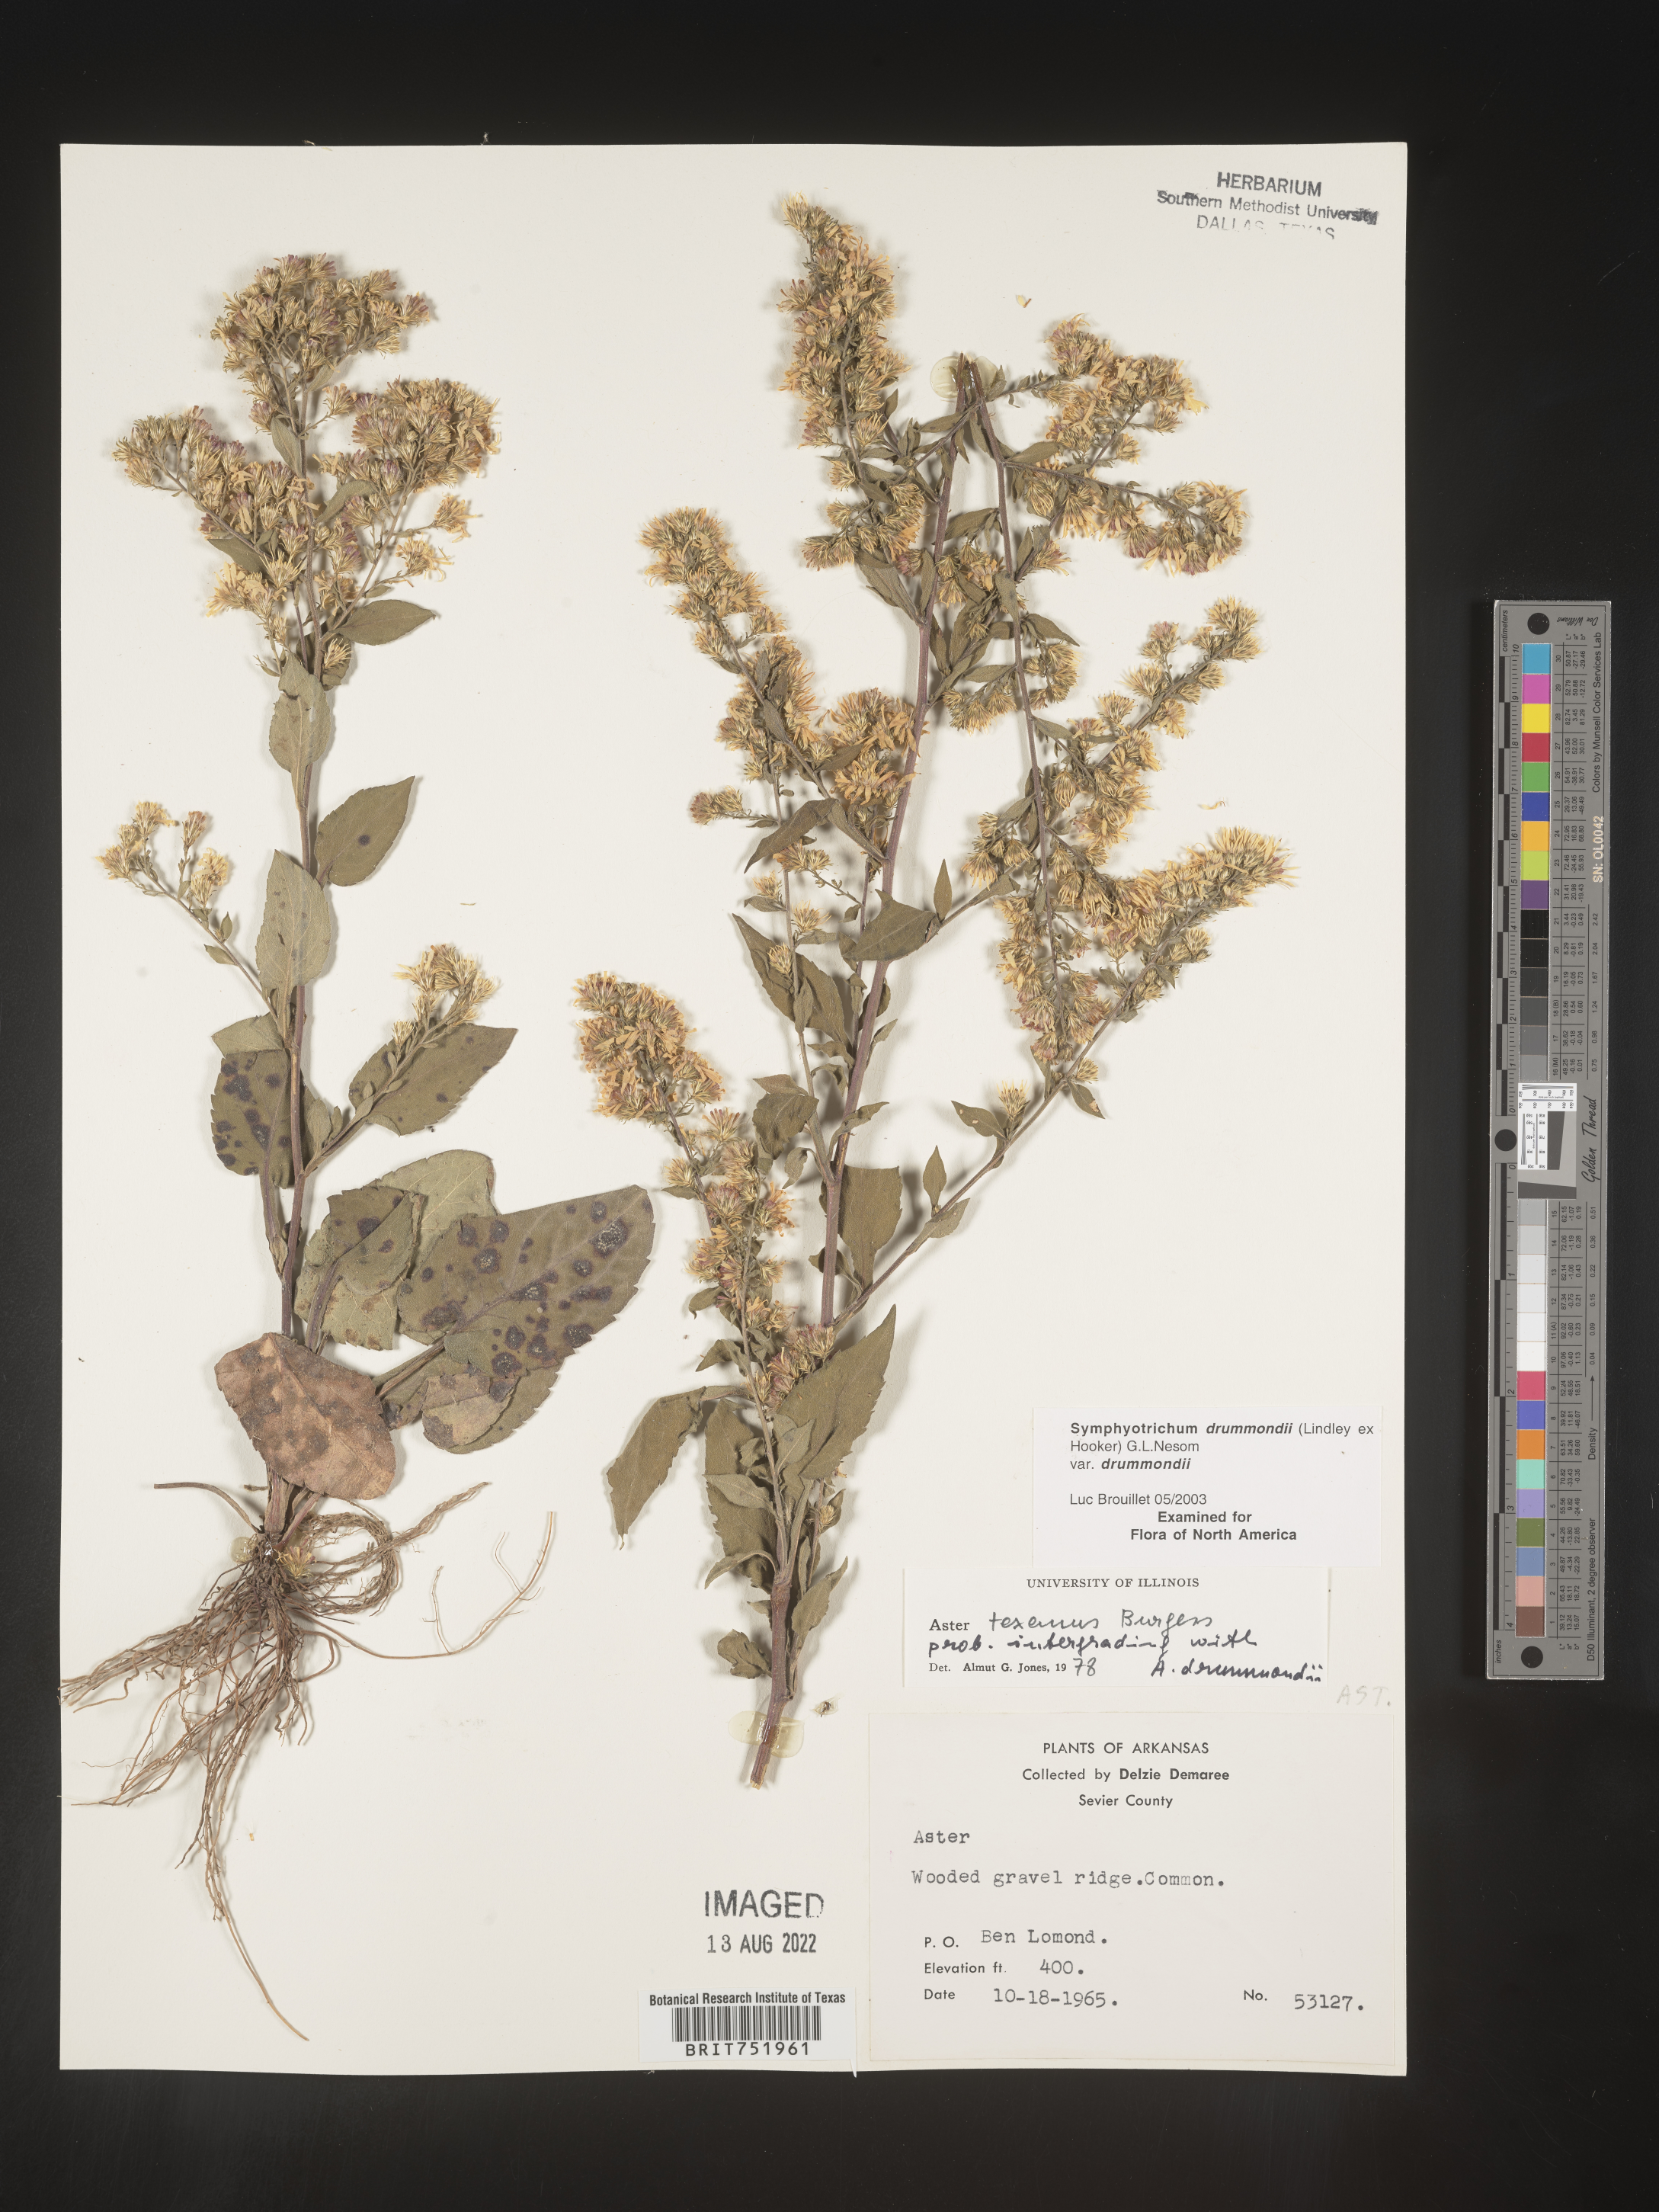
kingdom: Plantae
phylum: Tracheophyta
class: Magnoliopsida
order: Asterales
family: Asteraceae
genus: Symphyotrichum
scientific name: Symphyotrichum drummondii
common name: Drummond's aster
